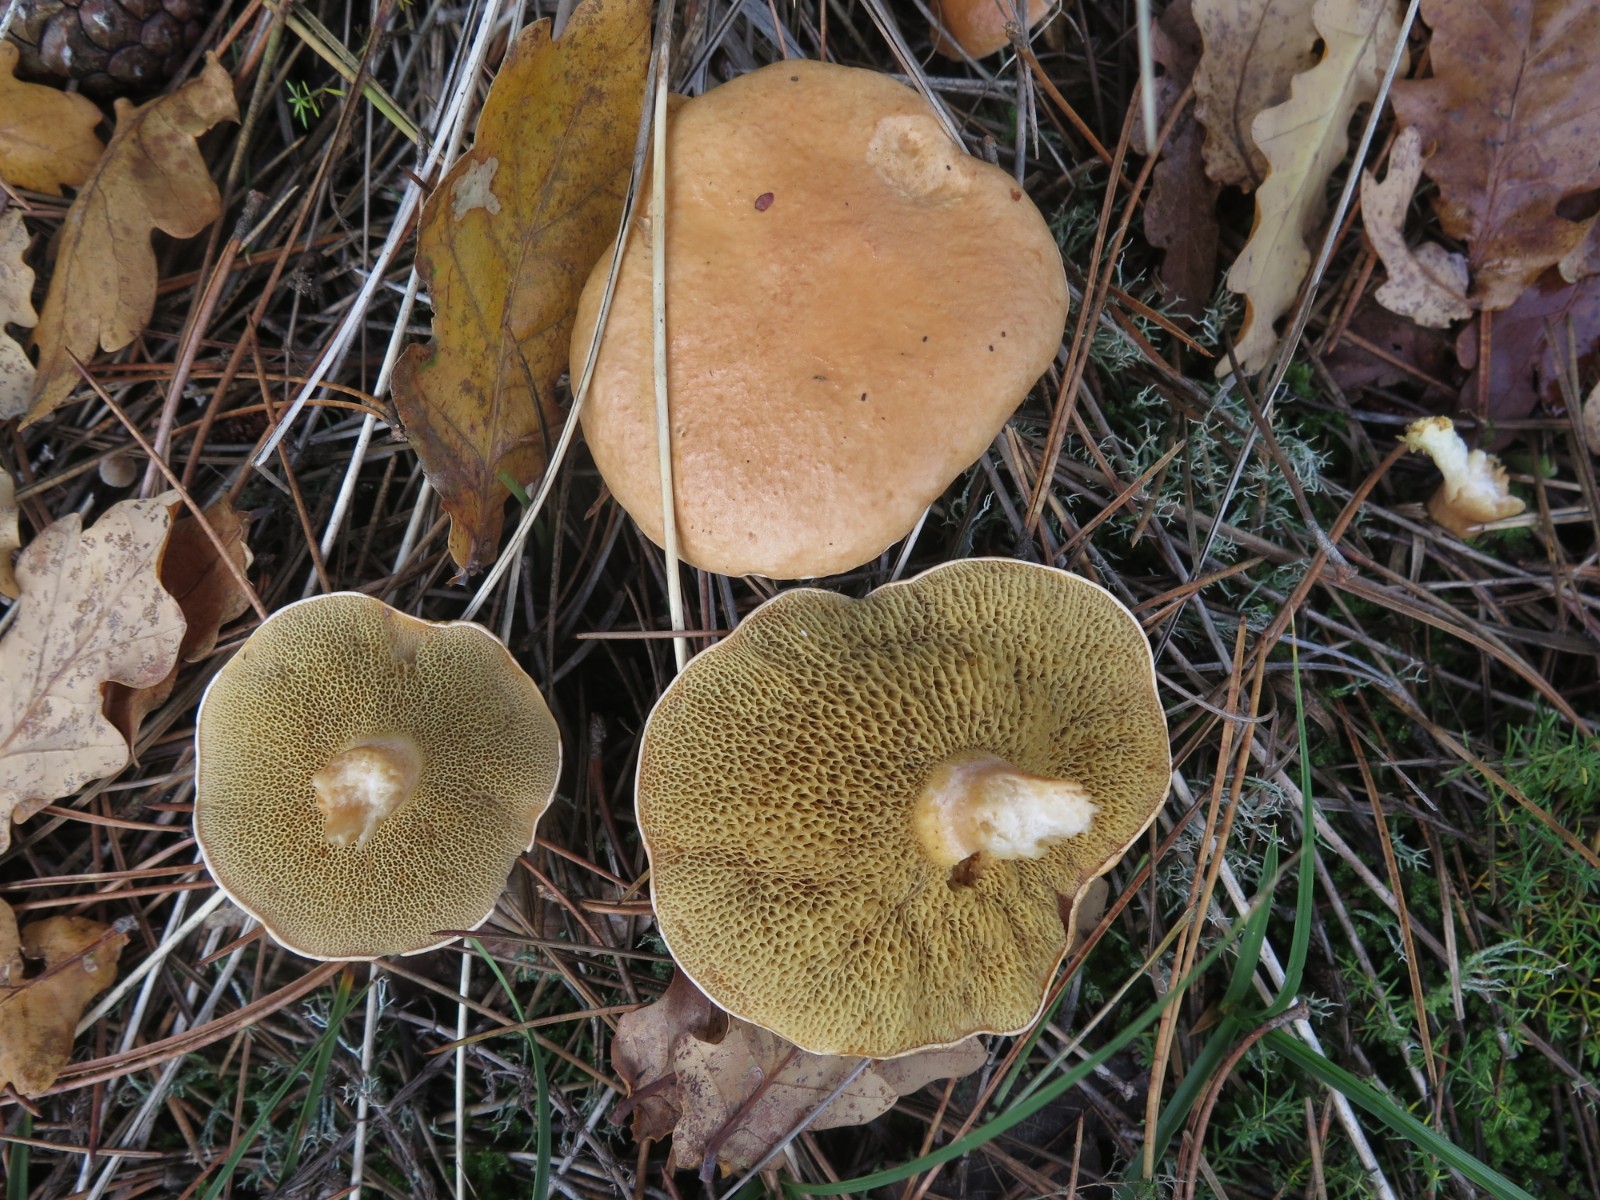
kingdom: Fungi
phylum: Basidiomycota
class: Agaricomycetes
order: Boletales
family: Suillaceae
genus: Suillus
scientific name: Suillus bovinus
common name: grovporet slimrørhat
